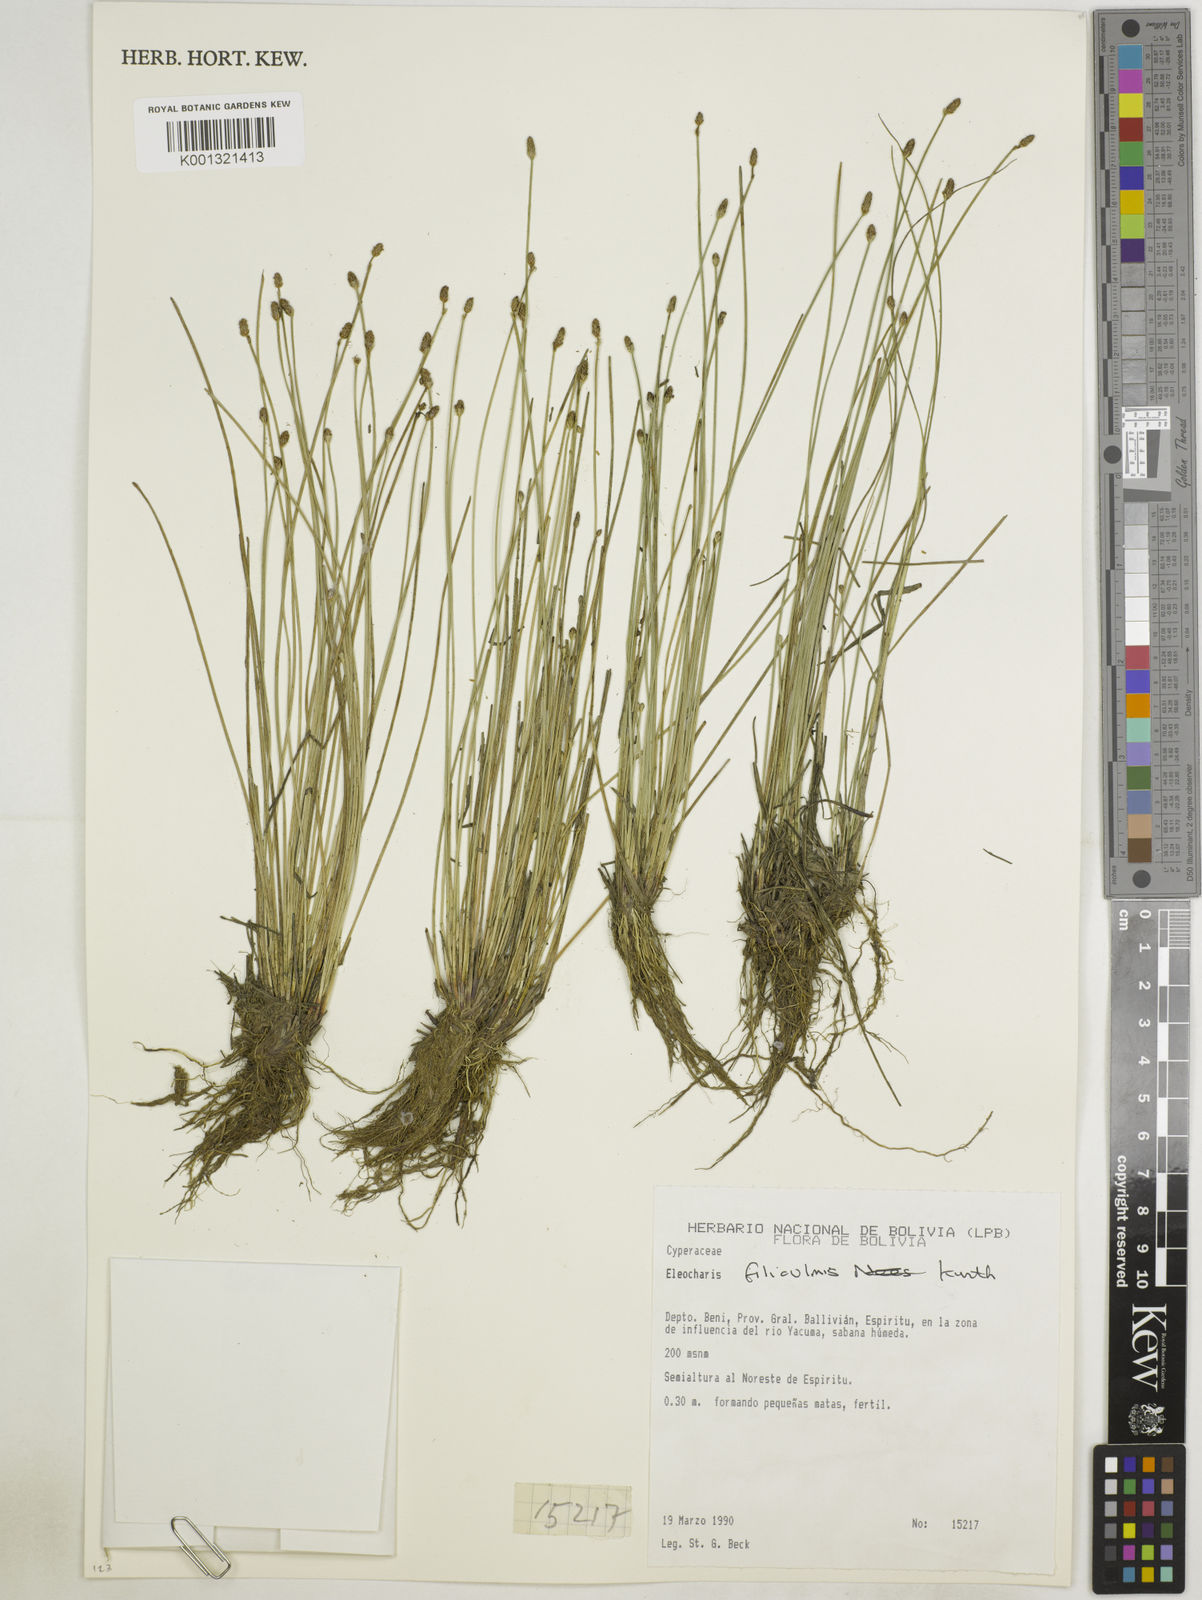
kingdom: Plantae
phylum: Tracheophyta
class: Liliopsida
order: Poales
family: Cyperaceae
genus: Eleocharis
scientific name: Eleocharis filiculmis
